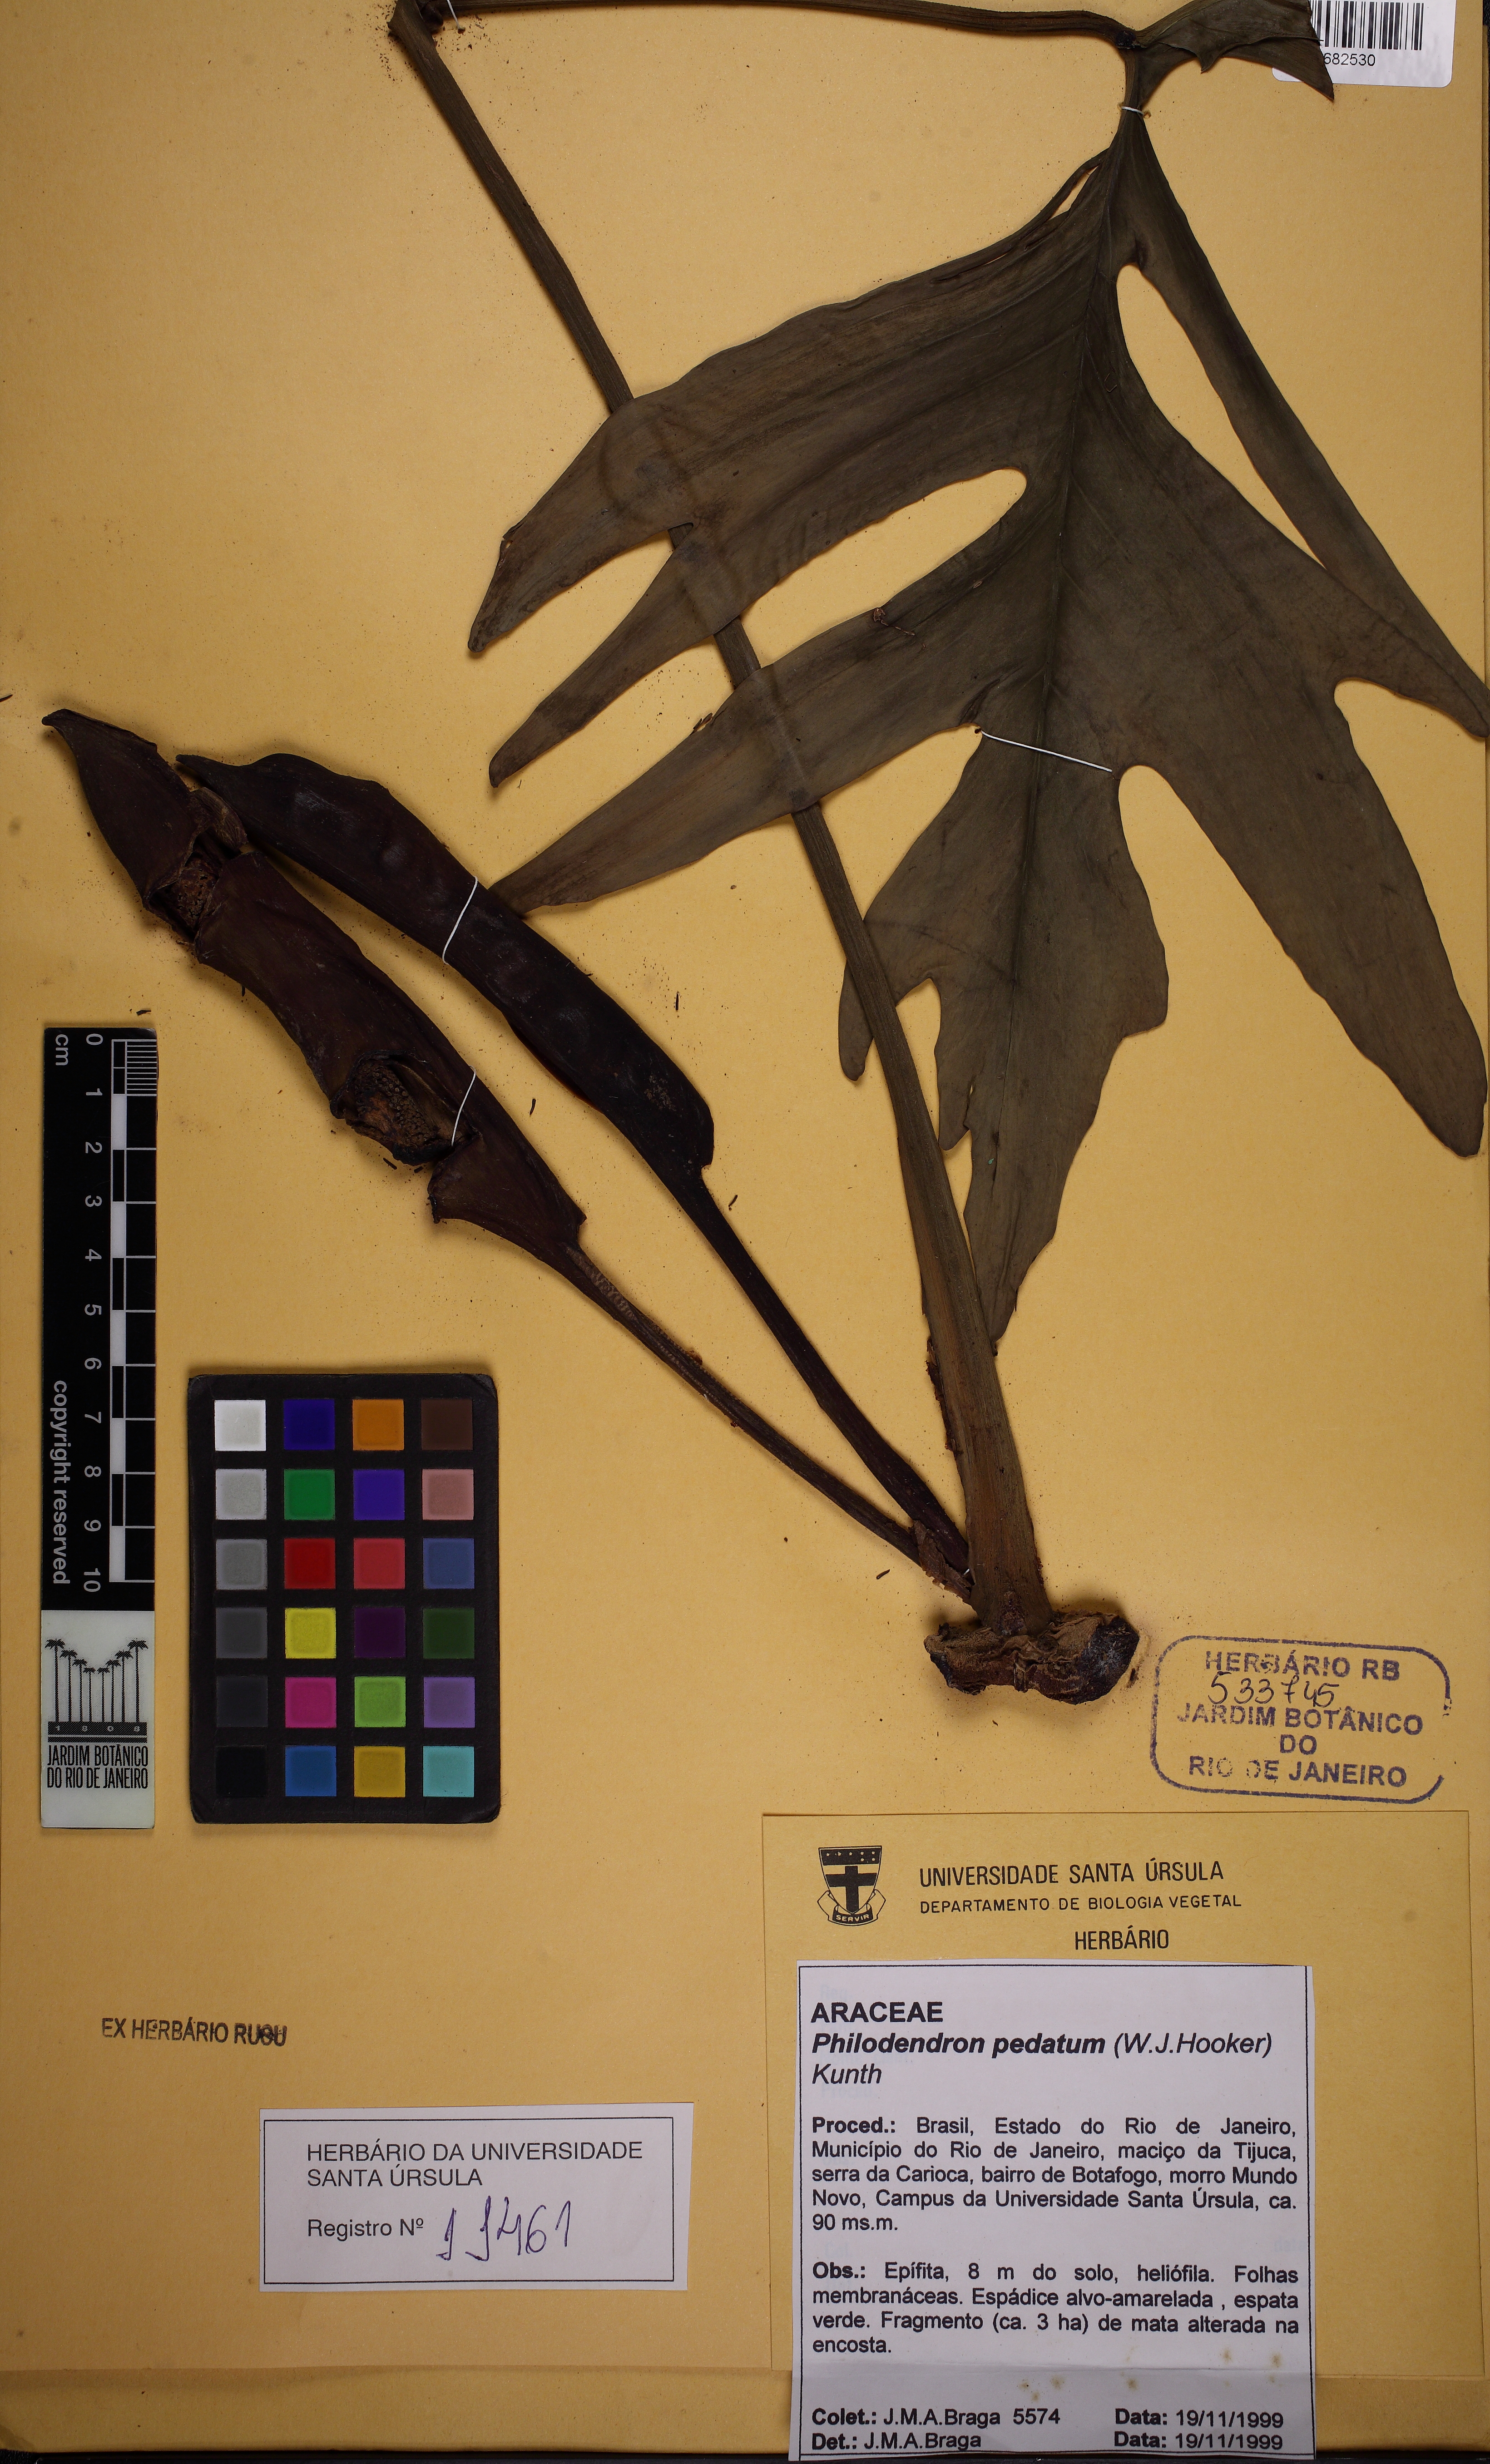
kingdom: Plantae
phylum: Tracheophyta
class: Liliopsida
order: Alismatales
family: Araceae
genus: Philodendron
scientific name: Philodendron crassinervium
